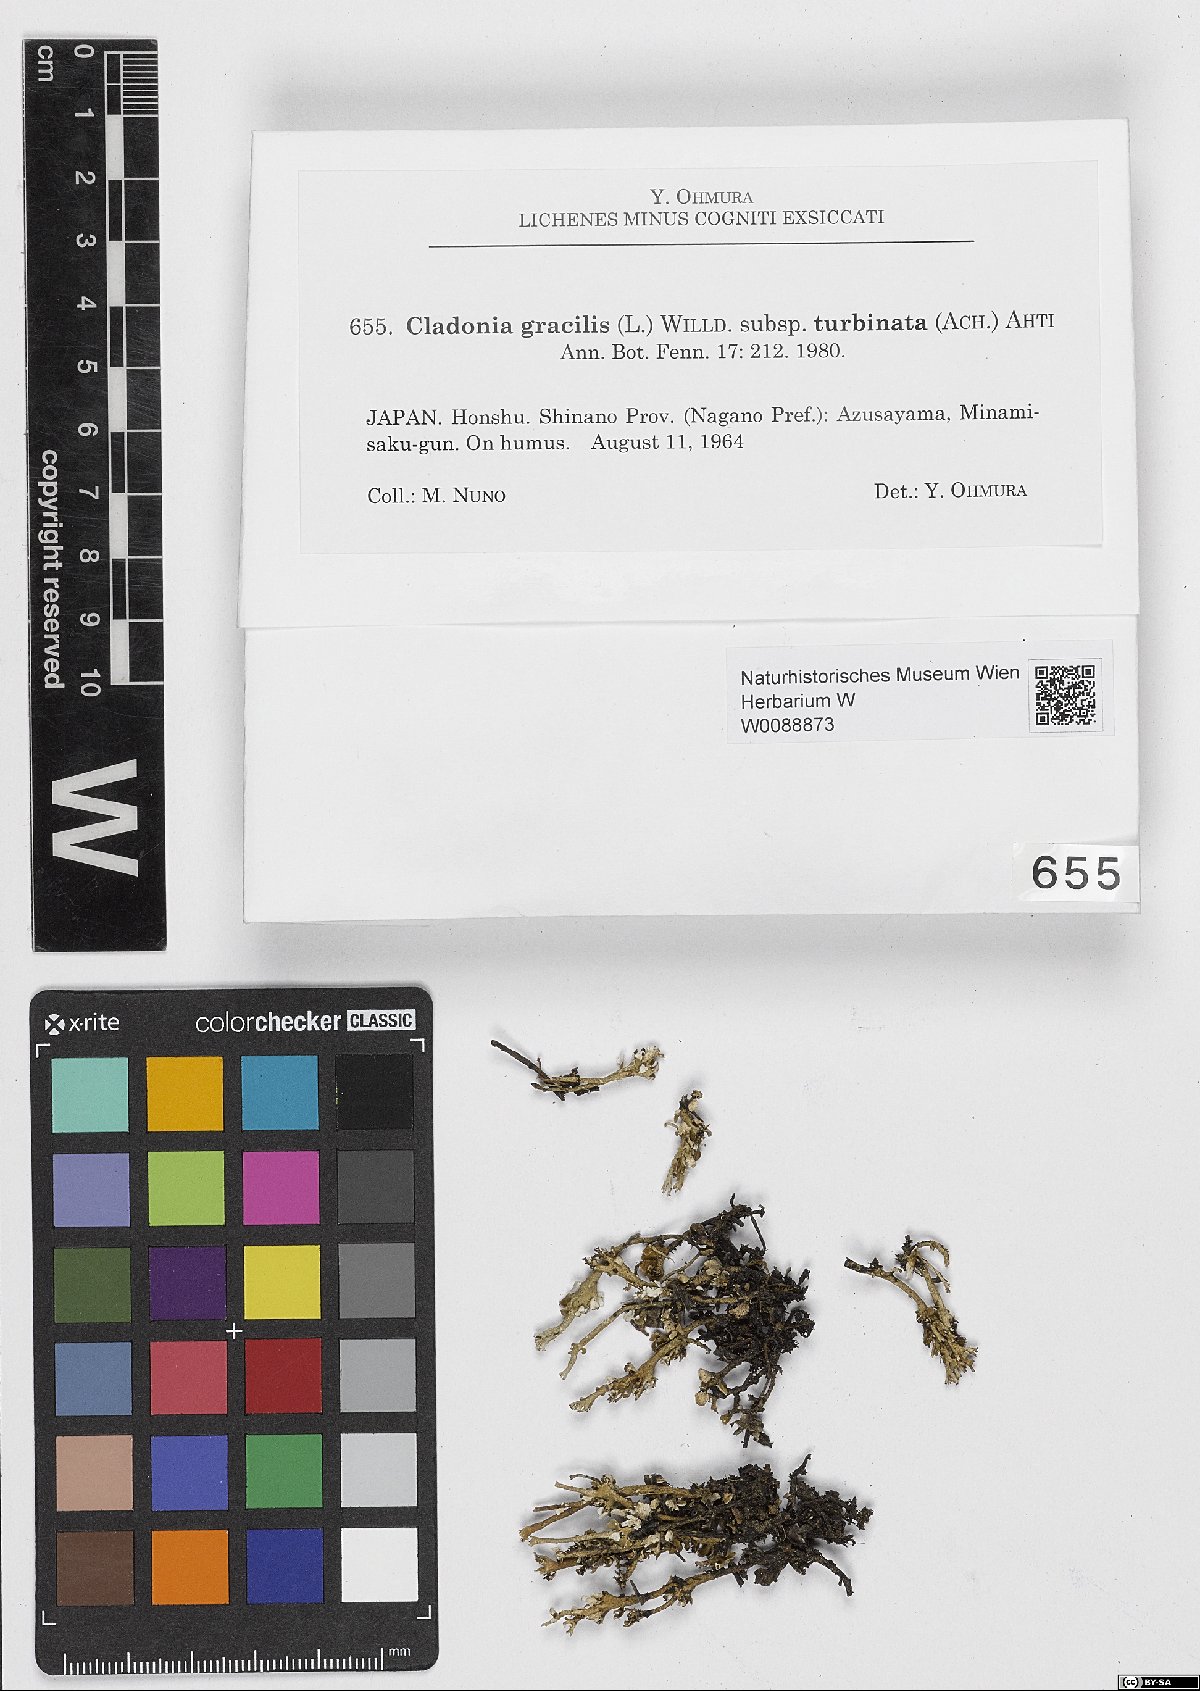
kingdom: Fungi
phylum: Ascomycota
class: Lecanoromycetes
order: Lecanorales
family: Cladoniaceae
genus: Cladonia
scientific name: Cladonia gracilis
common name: Smooth clad lichen
